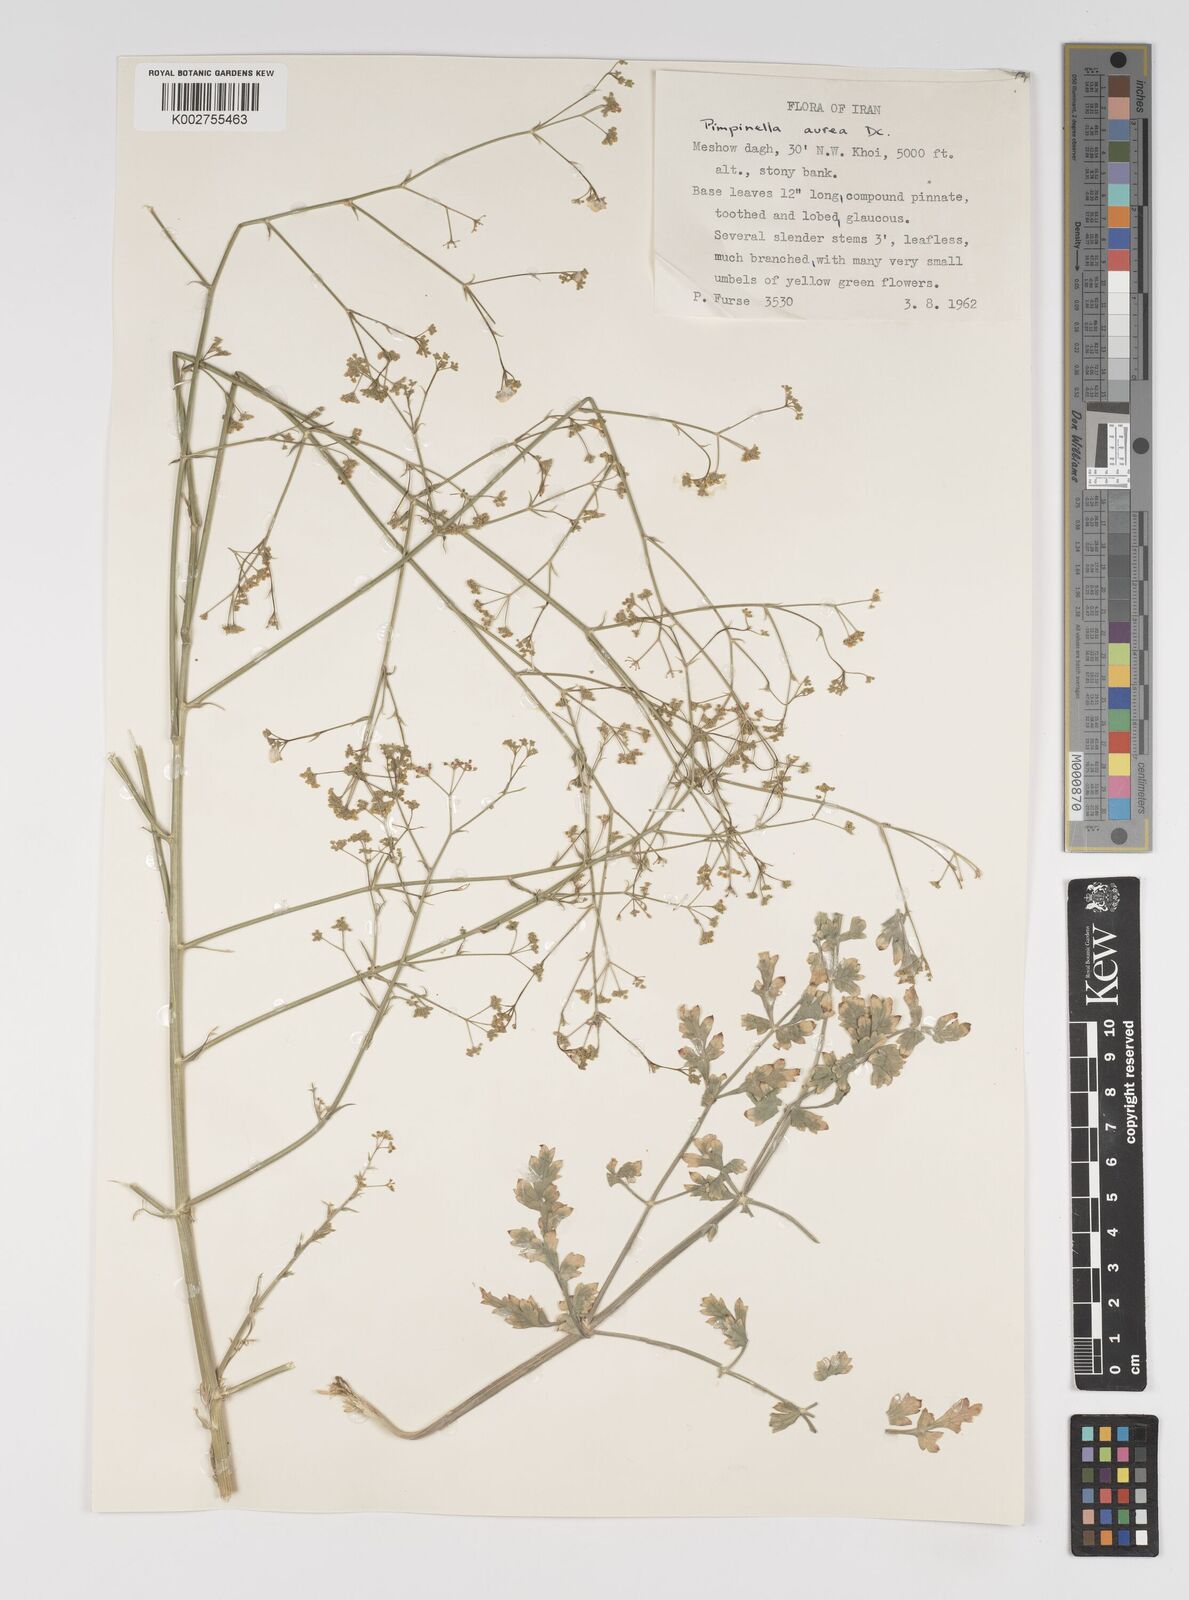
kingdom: Plantae
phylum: Tracheophyta
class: Magnoliopsida
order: Apiales
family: Apiaceae
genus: Pimpinella
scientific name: Pimpinella aurea
